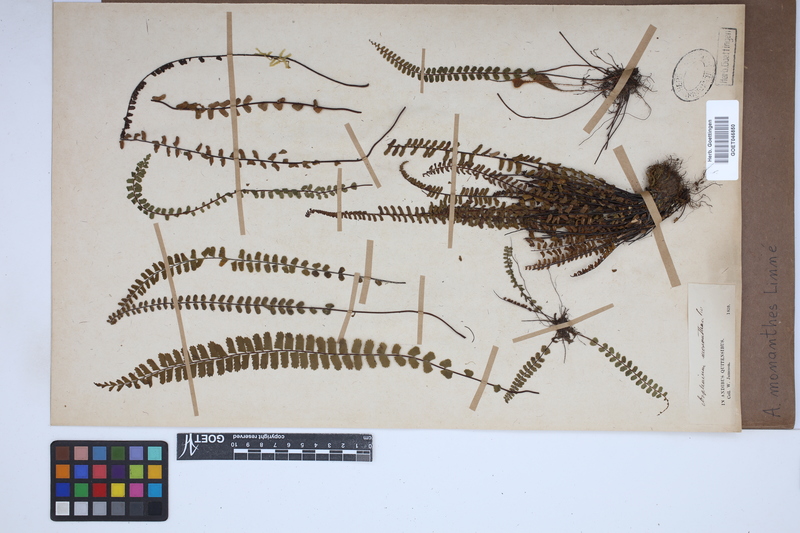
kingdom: Plantae
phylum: Tracheophyta
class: Polypodiopsida
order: Polypodiales
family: Aspleniaceae
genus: Asplenium
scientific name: Asplenium monanthes
